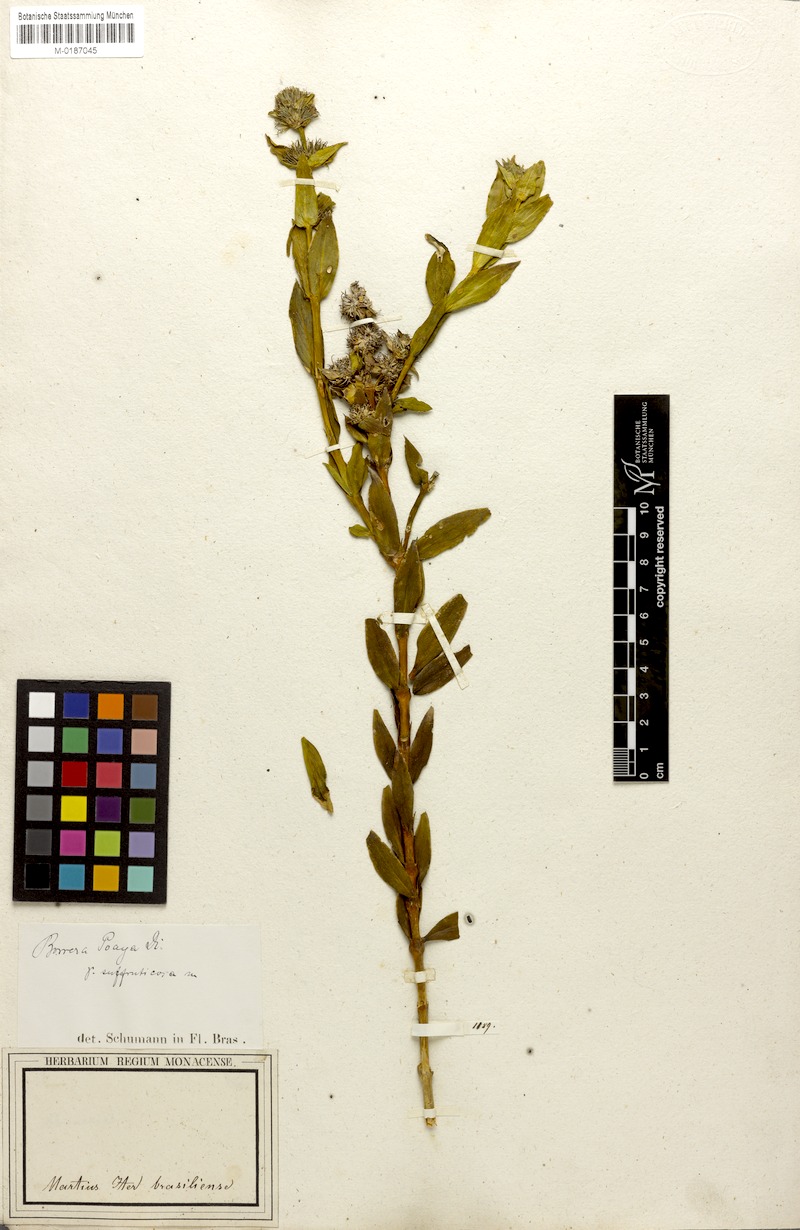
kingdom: Plantae
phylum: Tracheophyta
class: Magnoliopsida
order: Gentianales
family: Rubiaceae
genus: Spermacoce
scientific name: Spermacoce poaya
